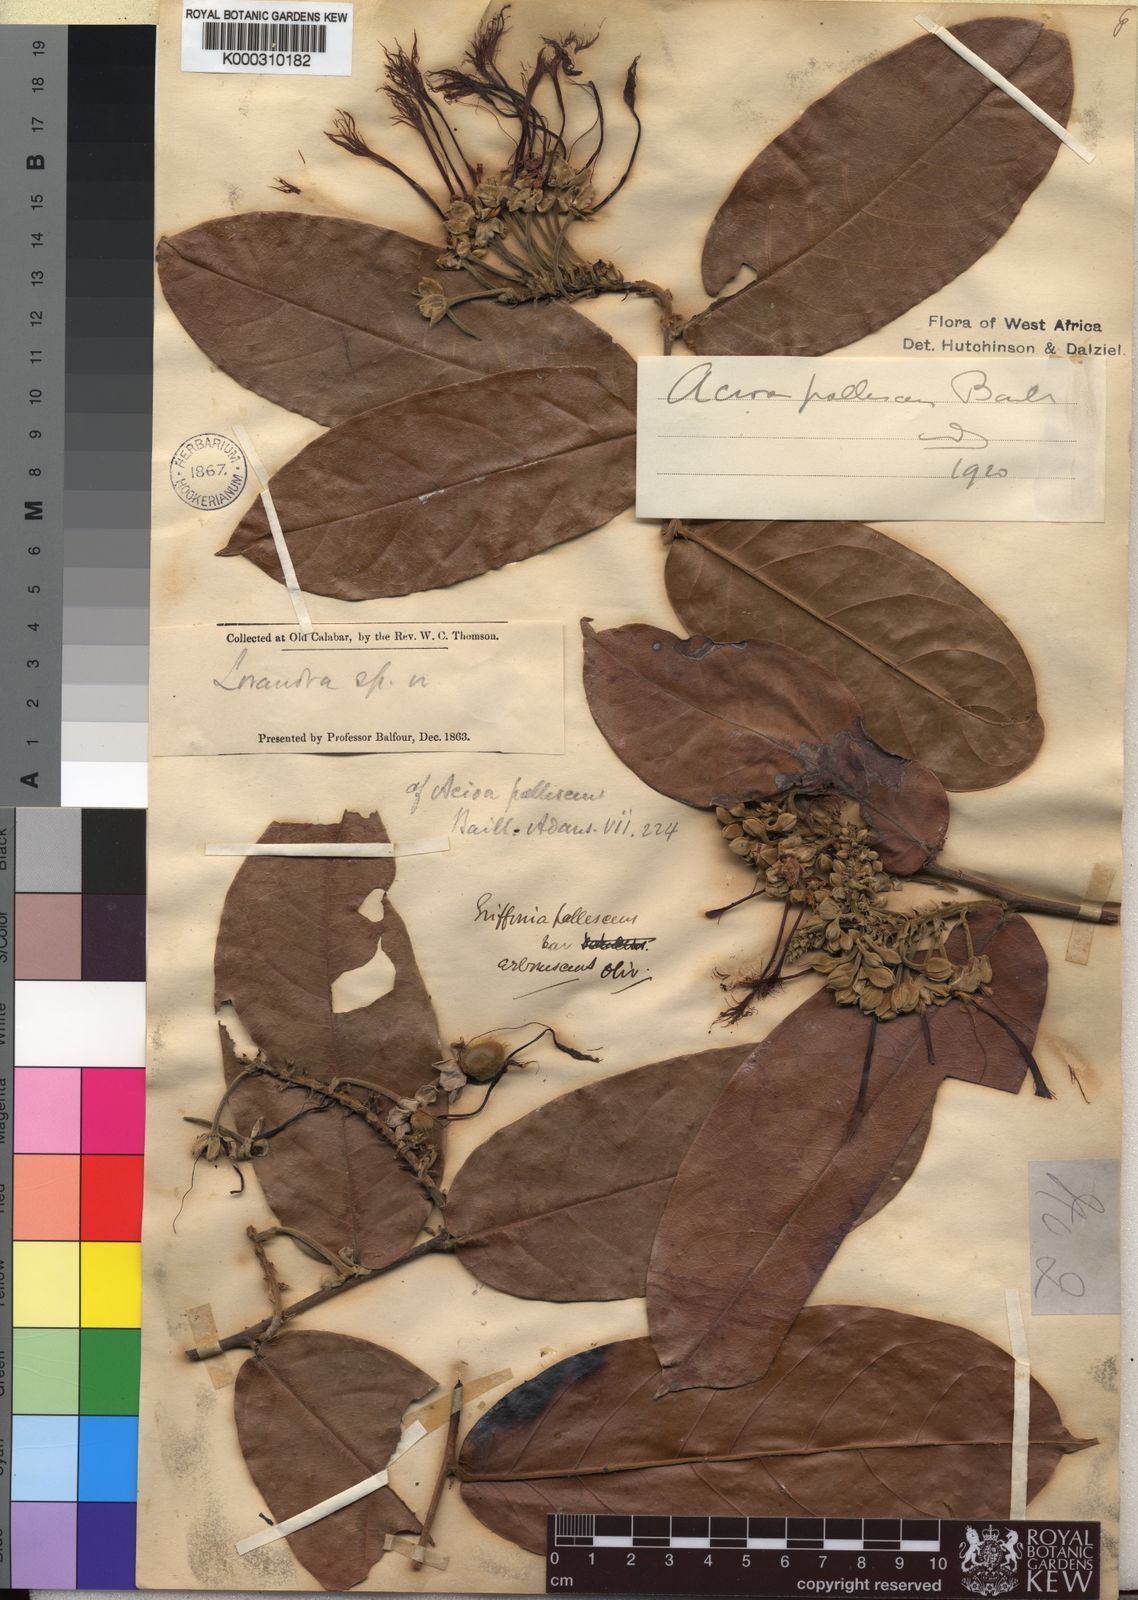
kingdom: Plantae
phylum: Tracheophyta
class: Magnoliopsida
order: Malpighiales
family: Chrysobalanaceae
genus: Dactyladenia
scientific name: Dactyladenia pallescens
